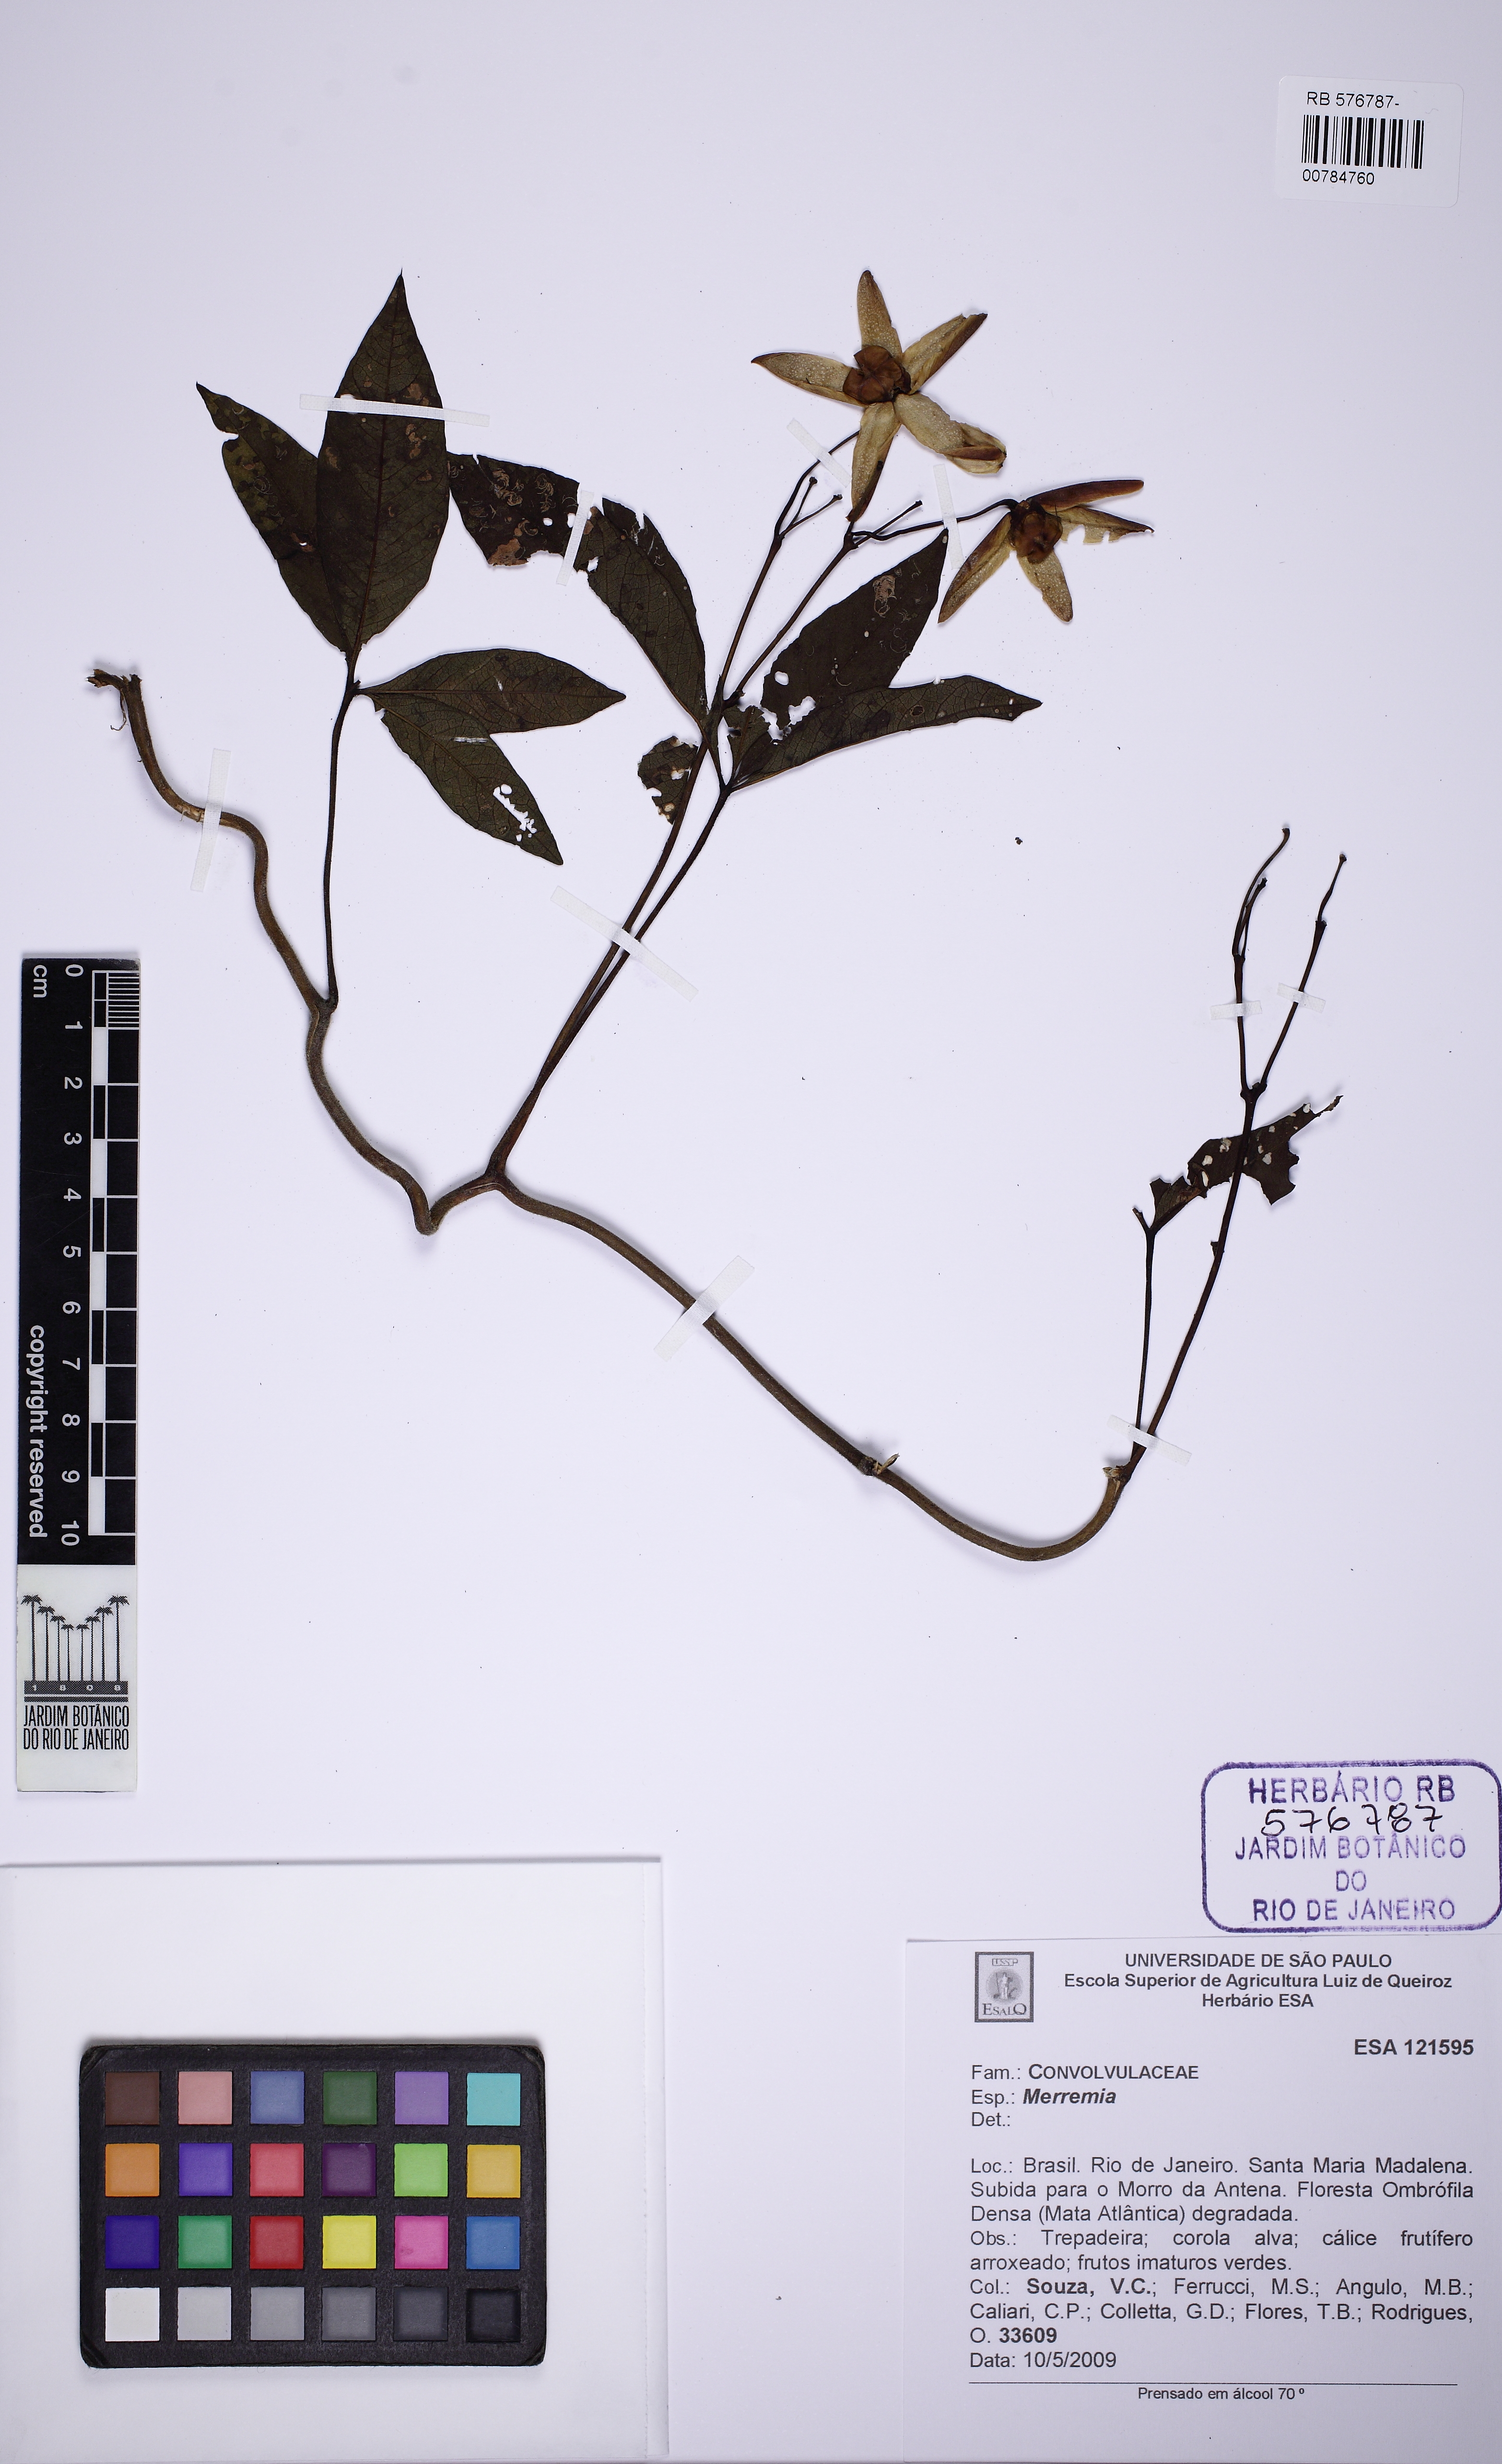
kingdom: Plantae
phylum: Tracheophyta
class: Magnoliopsida
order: Solanales
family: Convolvulaceae
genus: Distimake
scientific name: Distimake macrocalyx
